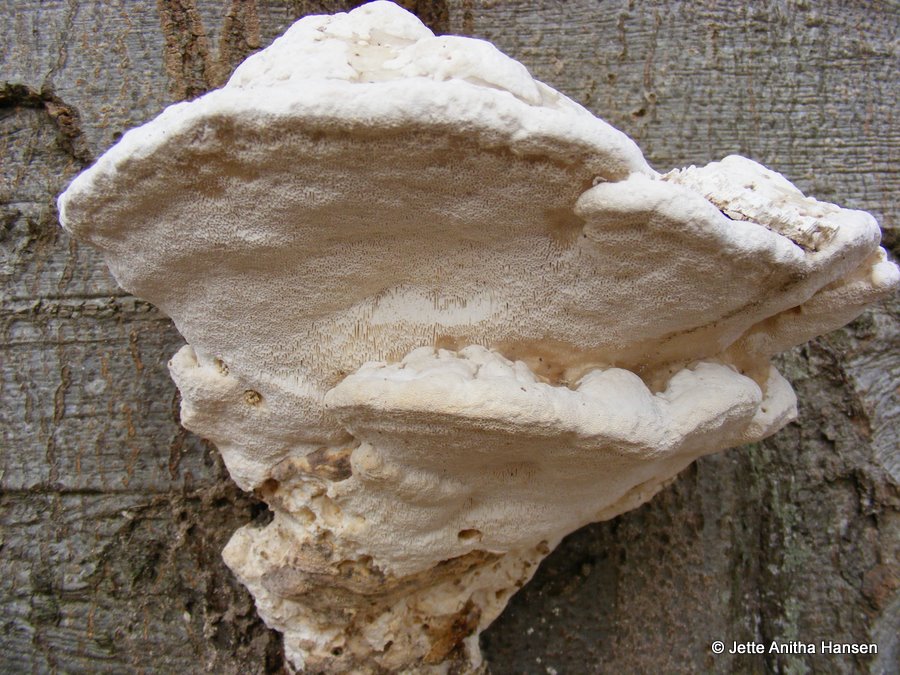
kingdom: Fungi
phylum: Basidiomycota
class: Agaricomycetes
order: Polyporales
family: Polyporaceae
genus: Trametes
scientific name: Trametes gibbosa
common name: puklet læderporesvamp
